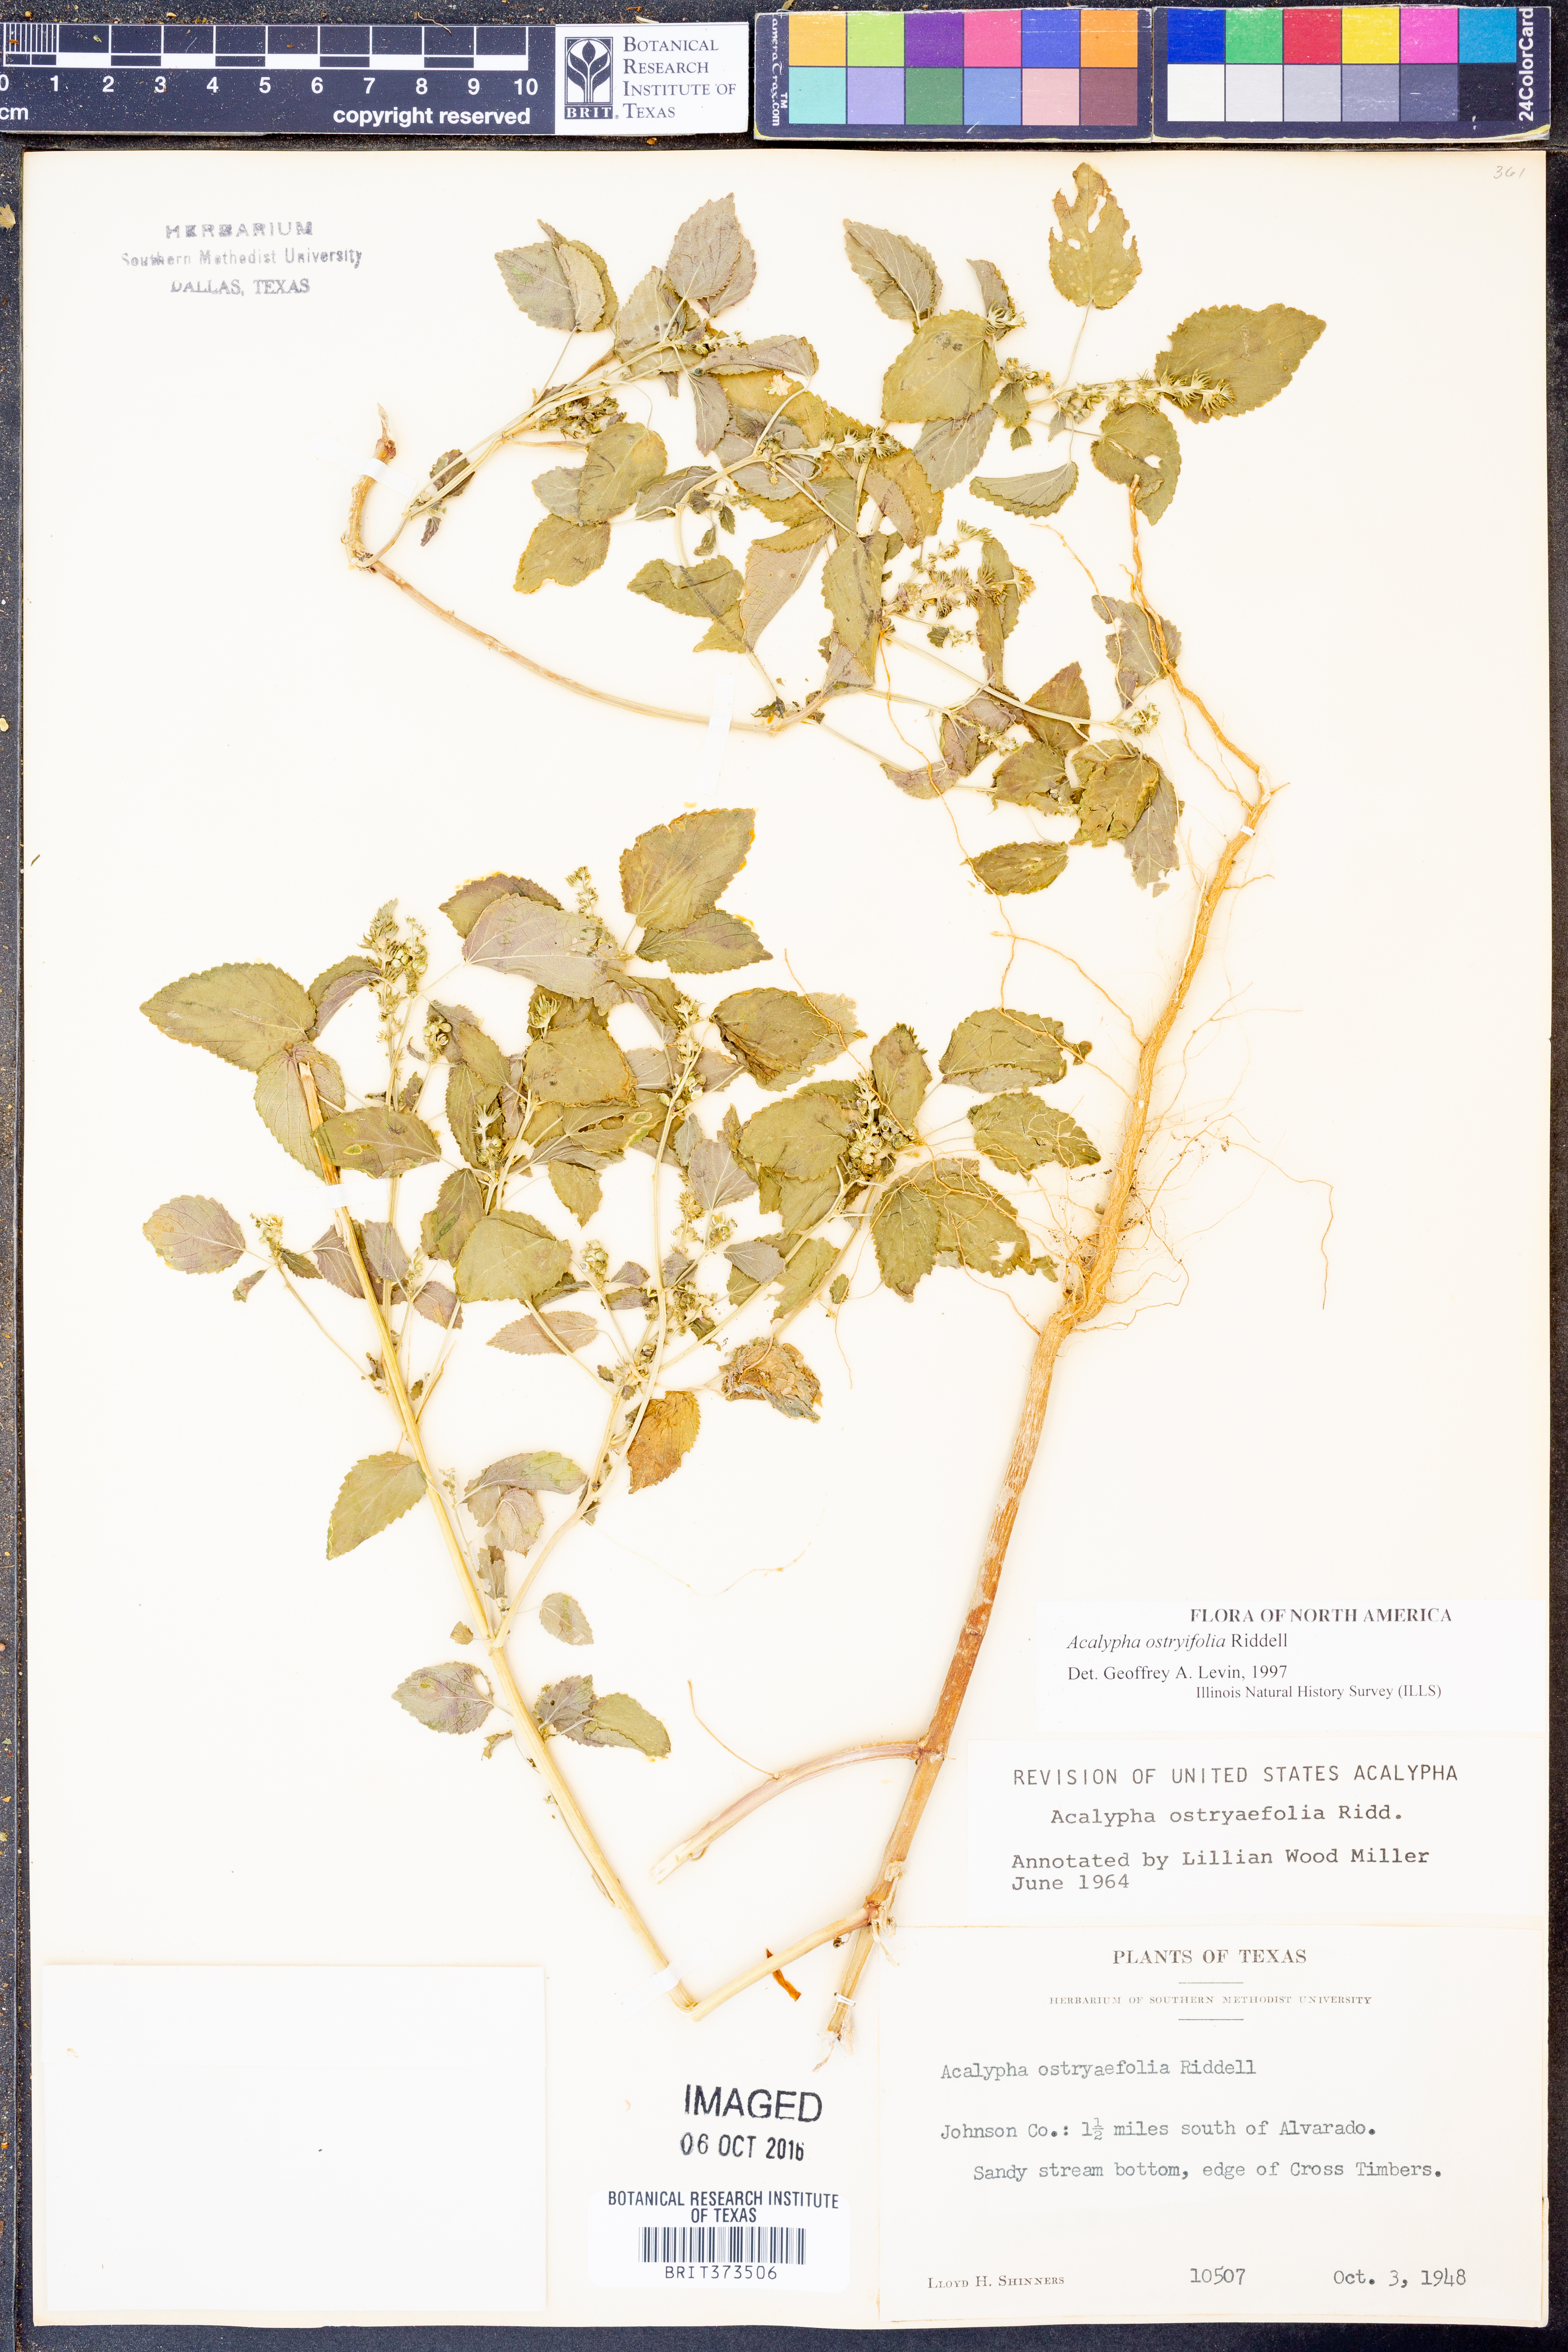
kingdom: Plantae
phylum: Tracheophyta
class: Magnoliopsida
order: Malpighiales
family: Euphorbiaceae
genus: Acalypha
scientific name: Acalypha persimilis
